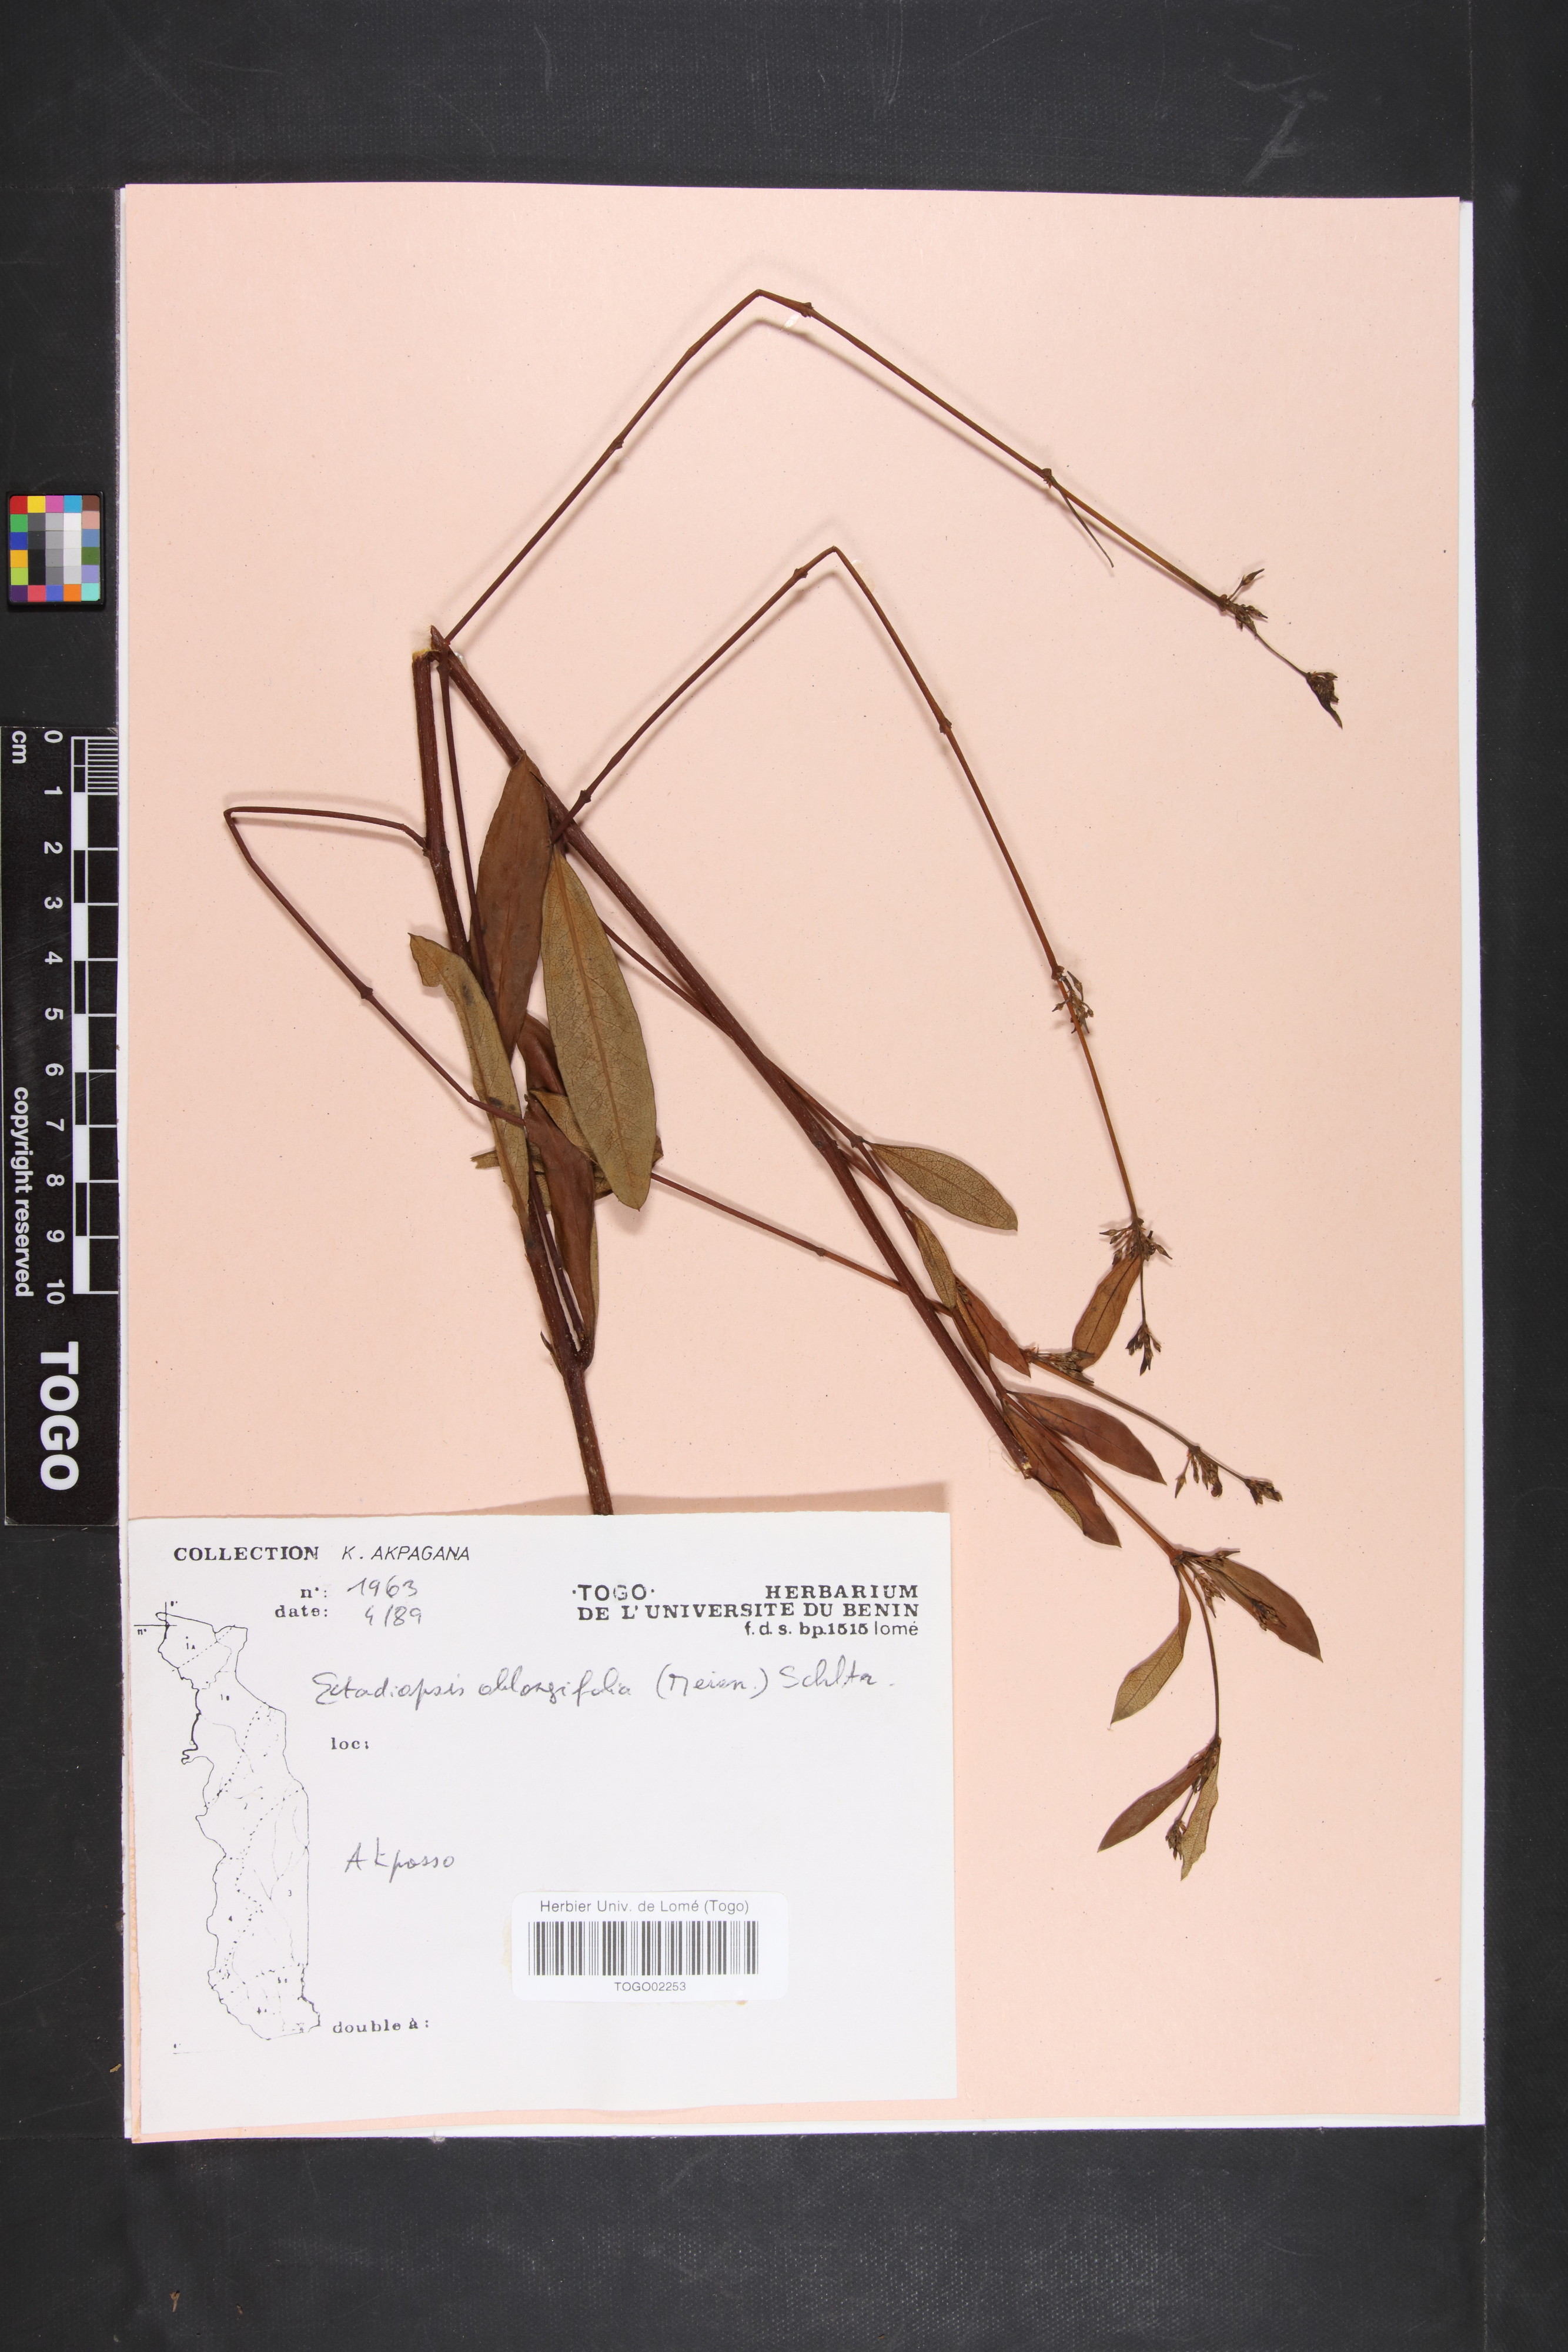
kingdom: Plantae
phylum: Tracheophyta
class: Magnoliopsida
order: Gentianales
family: Apocynaceae
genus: Cryptolepis
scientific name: Cryptolepis oblongifolia
